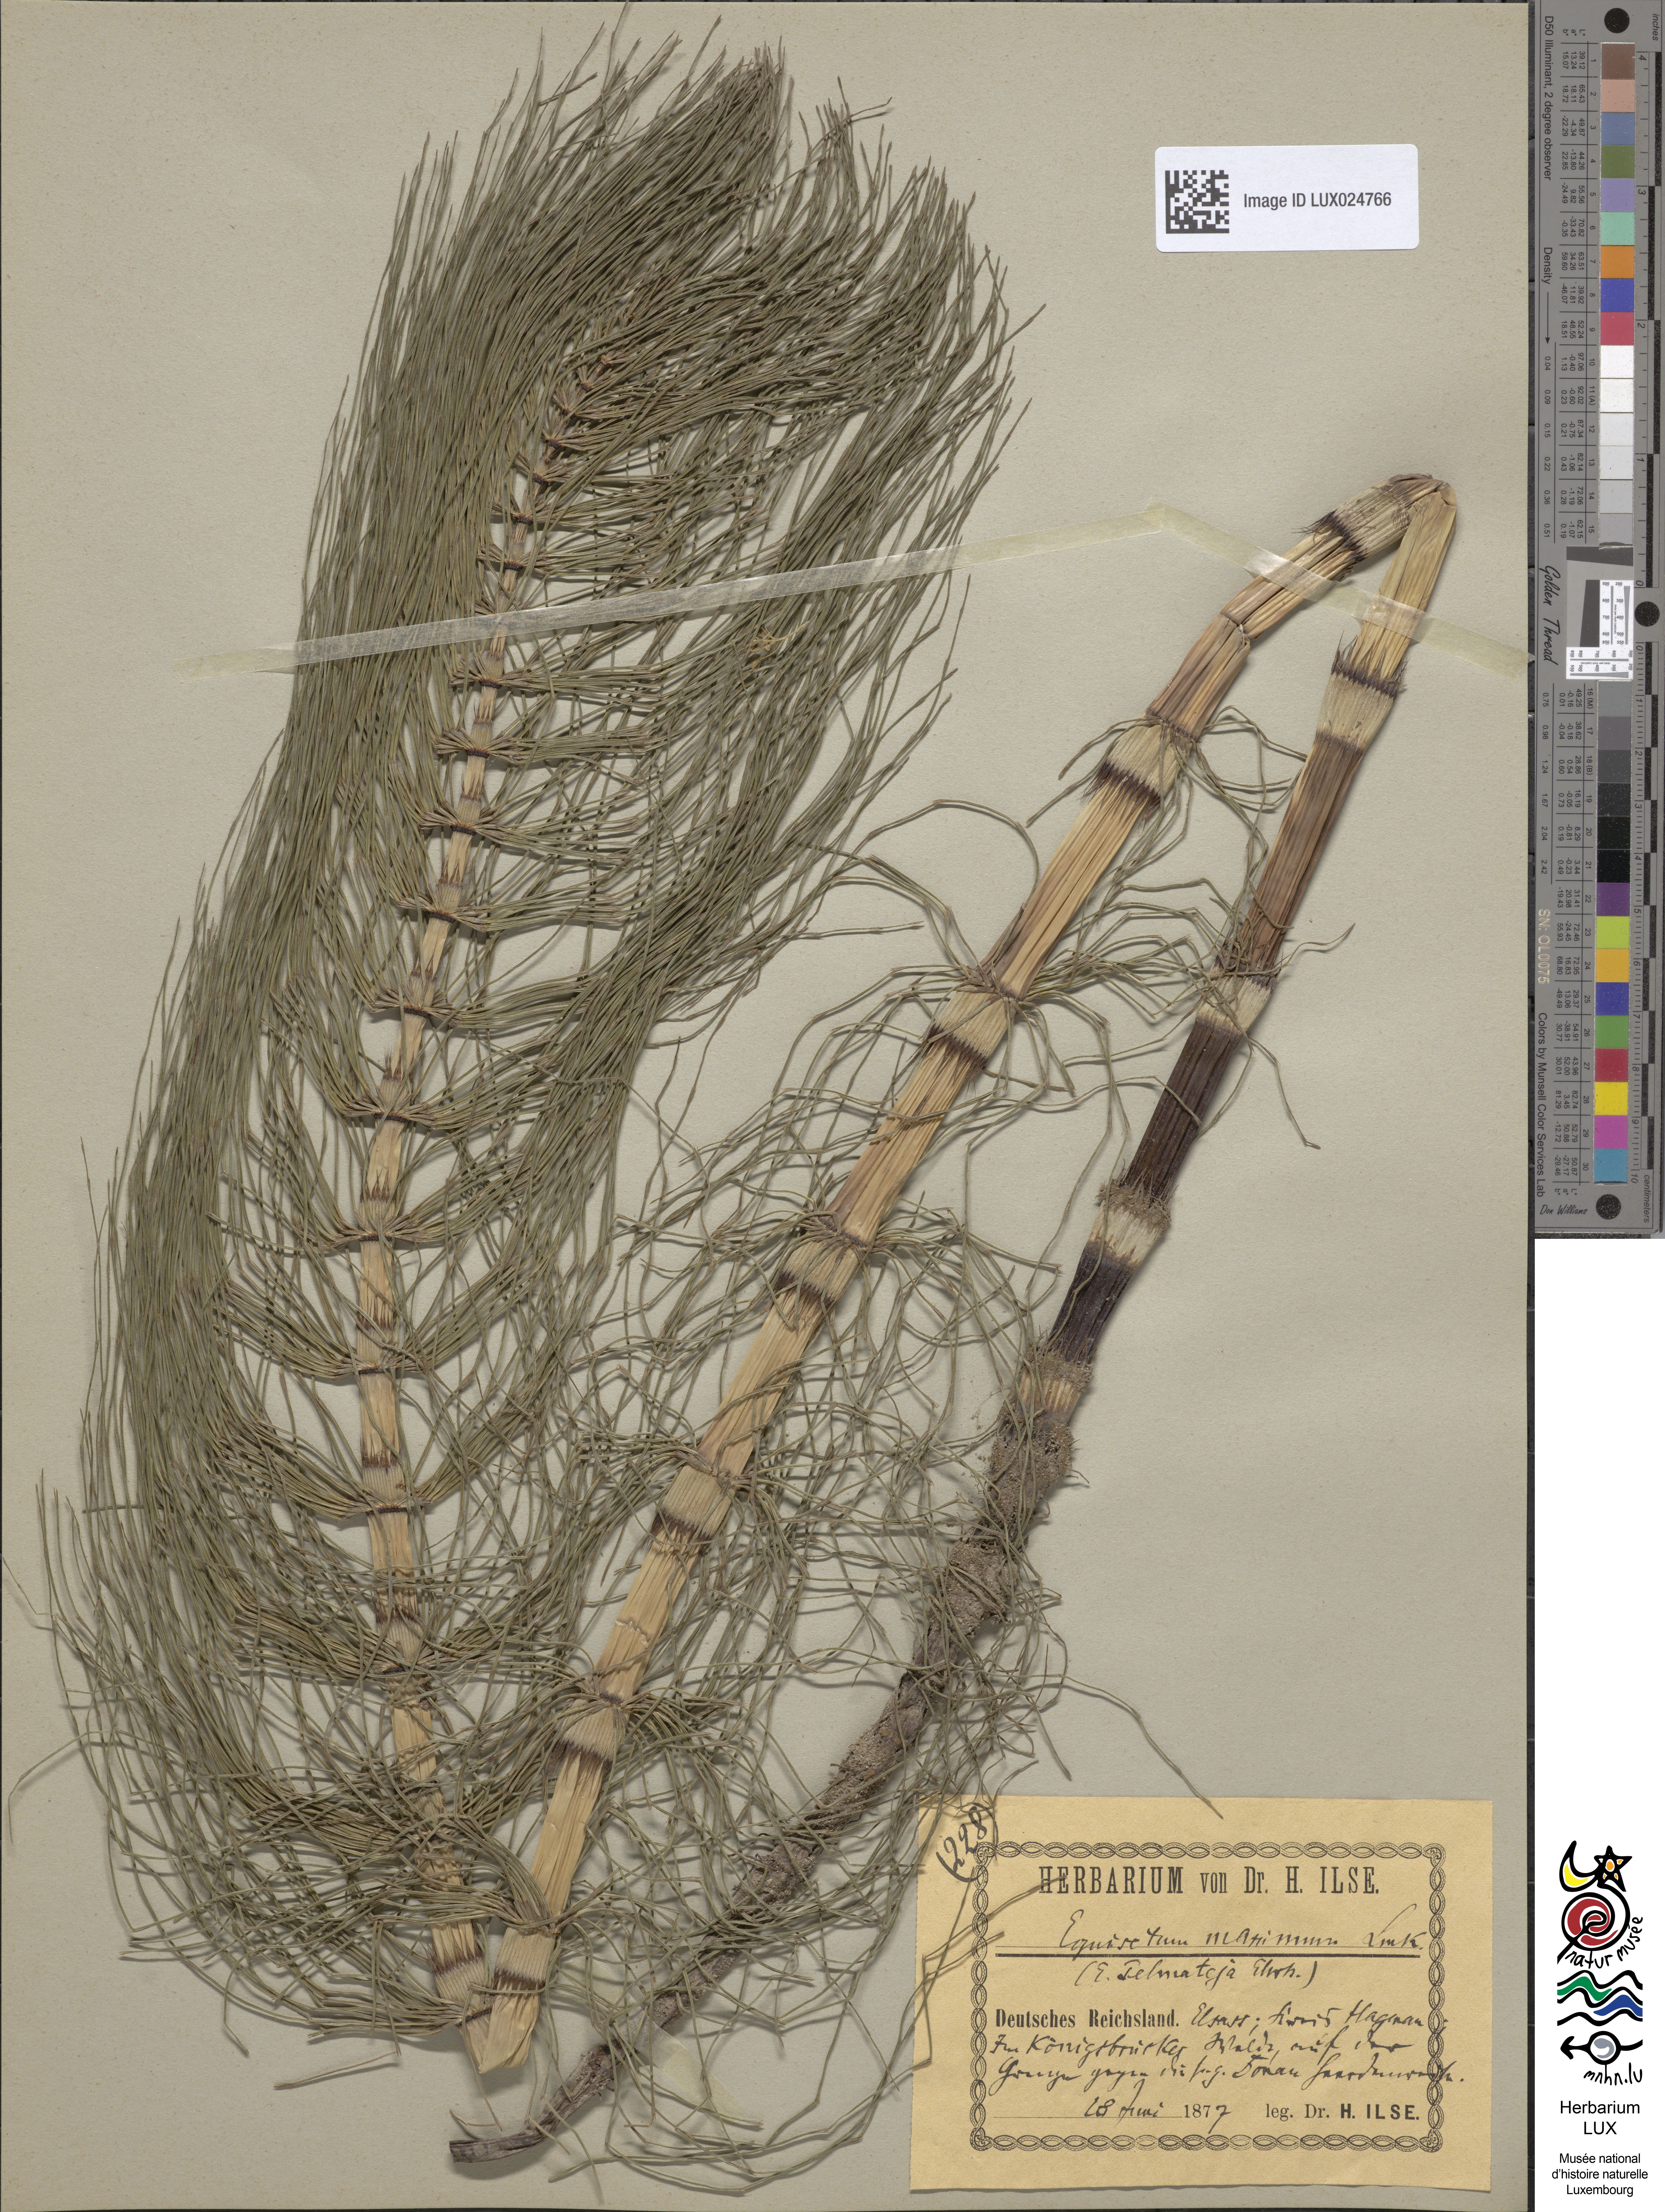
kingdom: Plantae
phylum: Tracheophyta
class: Polypodiopsida
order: Equisetales
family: Equisetaceae
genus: Equisetum
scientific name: Equisetum telmateia
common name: Great horsetail
